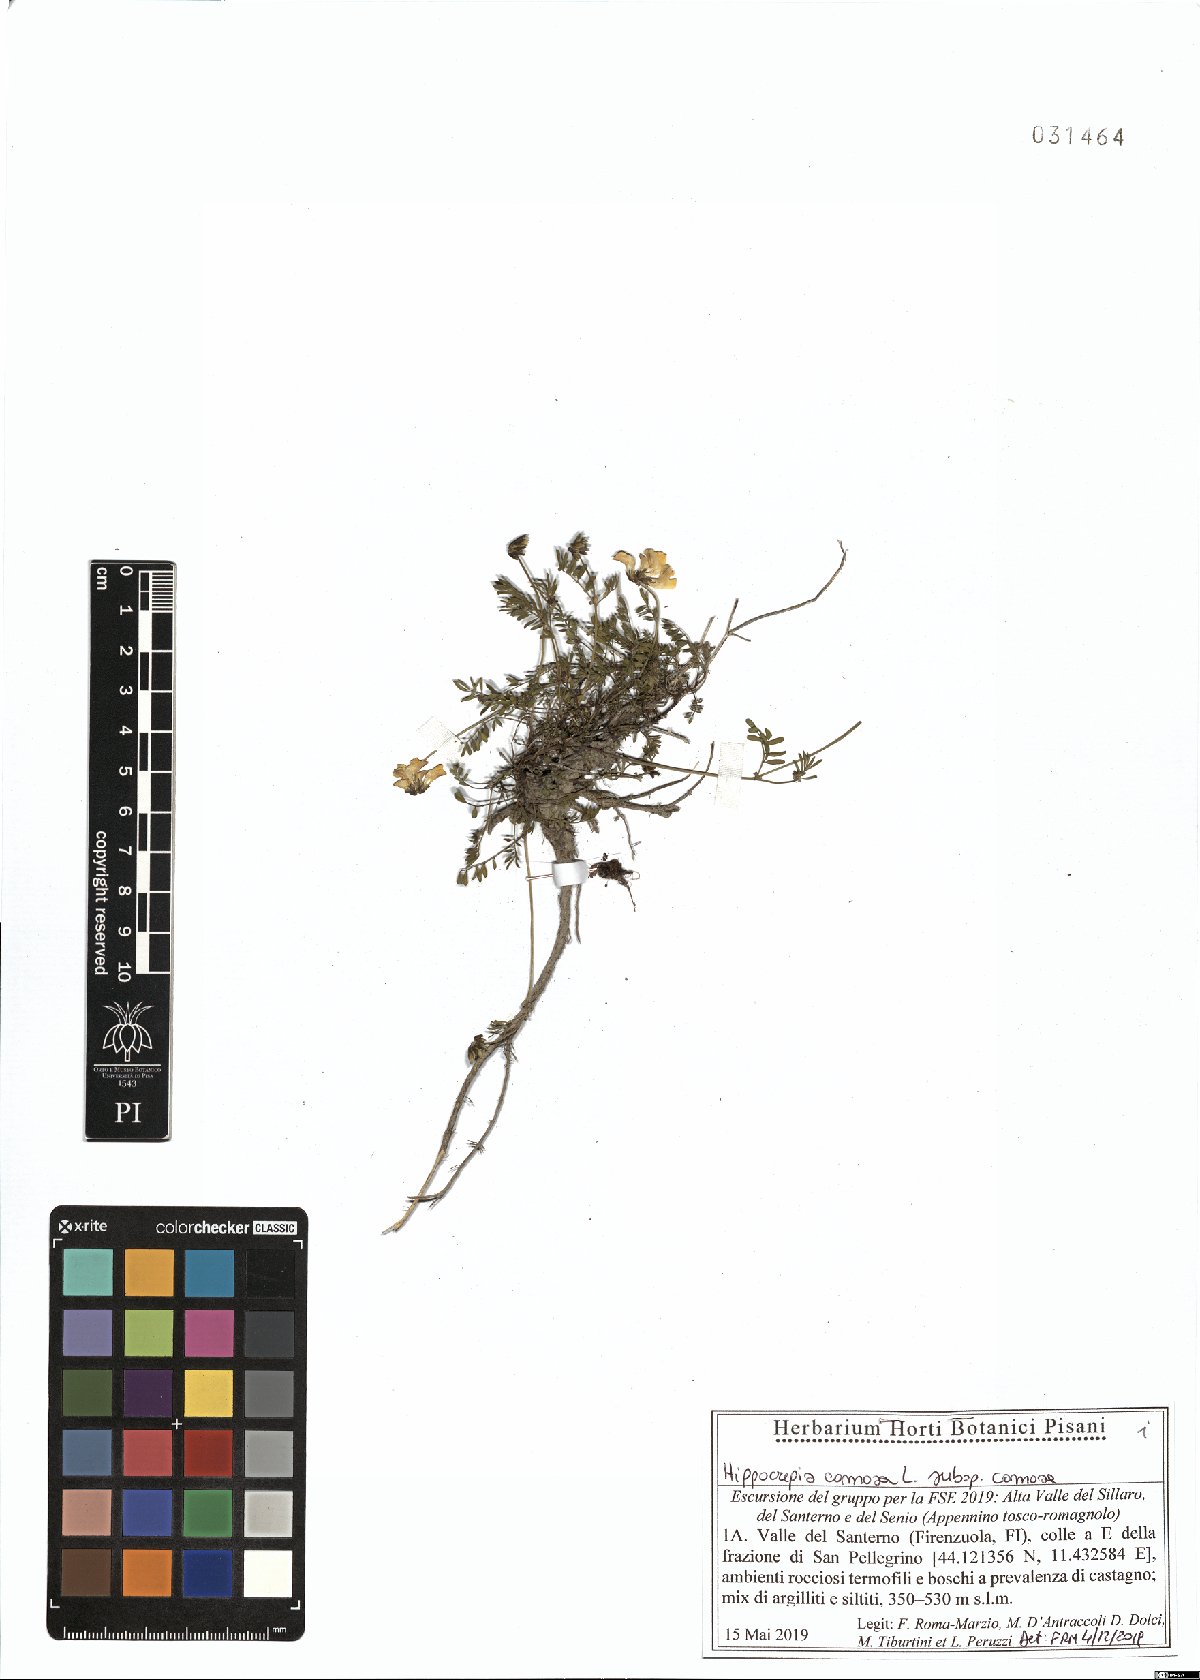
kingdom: Plantae
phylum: Tracheophyta
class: Magnoliopsida
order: Fabales
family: Fabaceae
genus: Hippocrepis
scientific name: Hippocrepis comosa
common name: Horseshoe vetch
